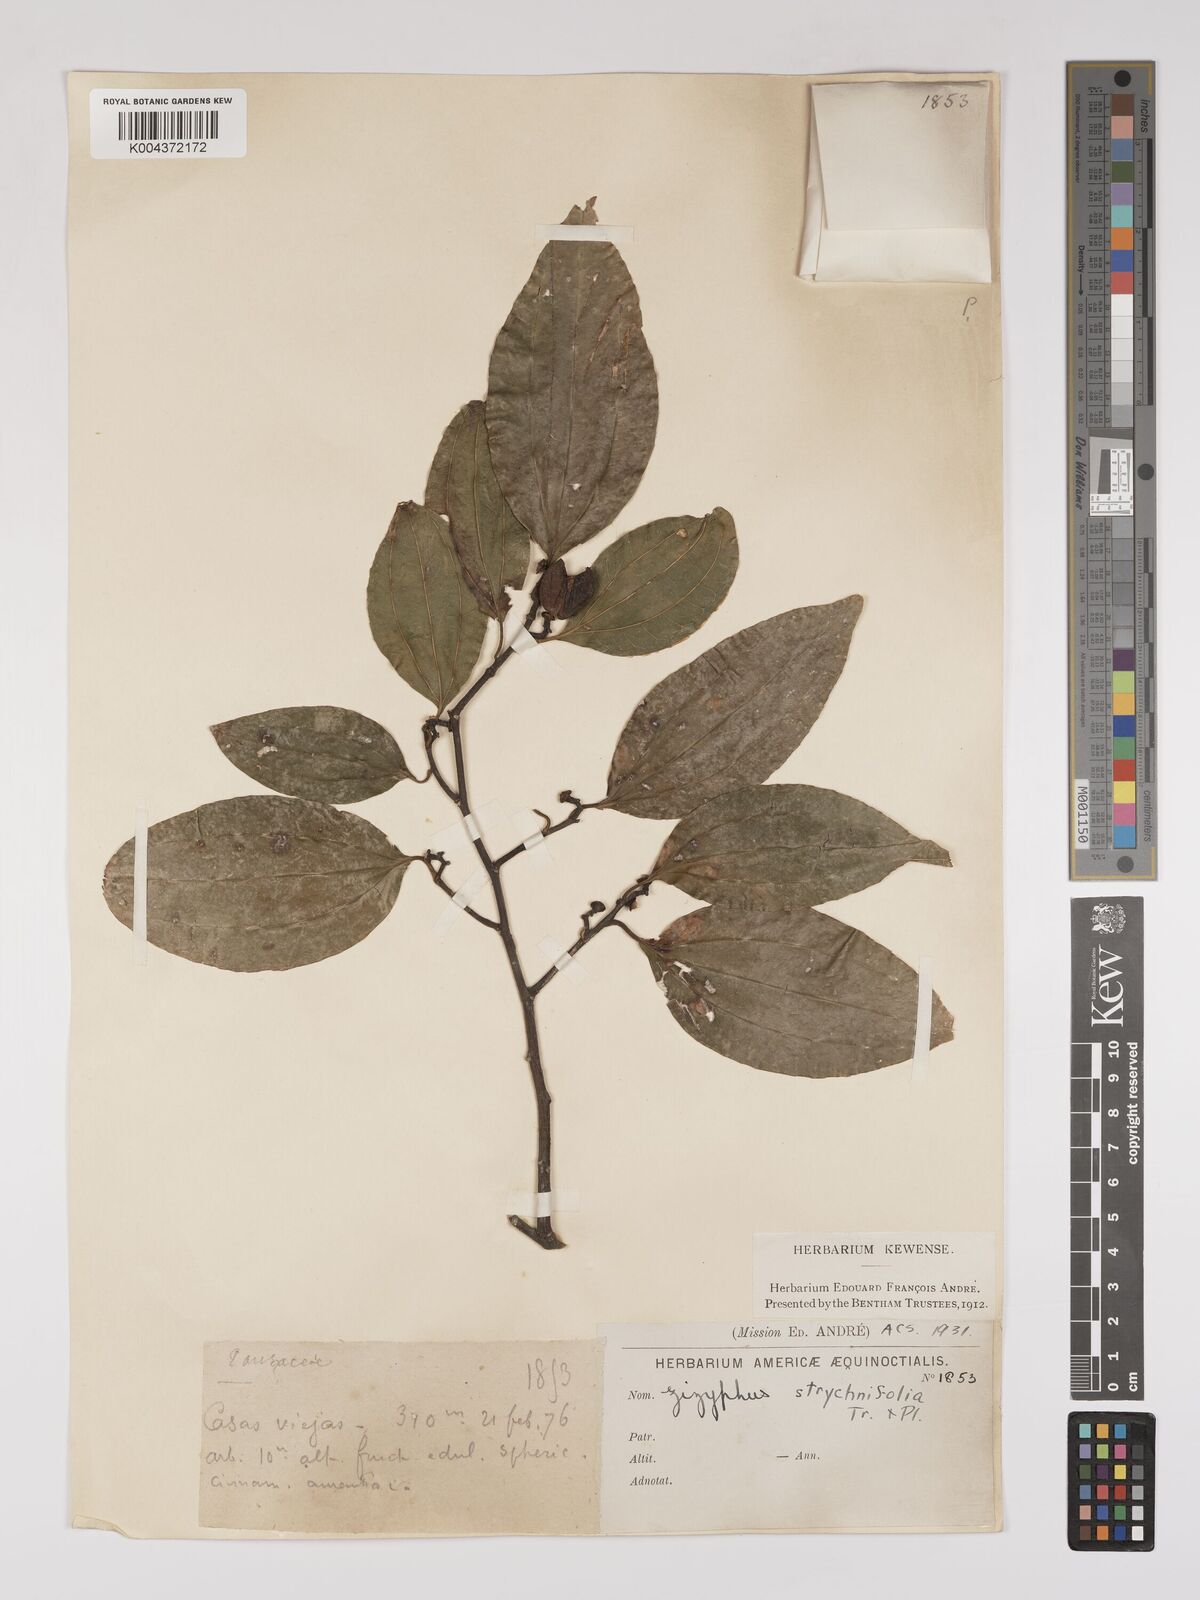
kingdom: Plantae
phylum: Tracheophyta
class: Magnoliopsida
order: Rosales
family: Rhamnaceae
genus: Sarcomphalus
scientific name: Sarcomphalus strychnifolius
